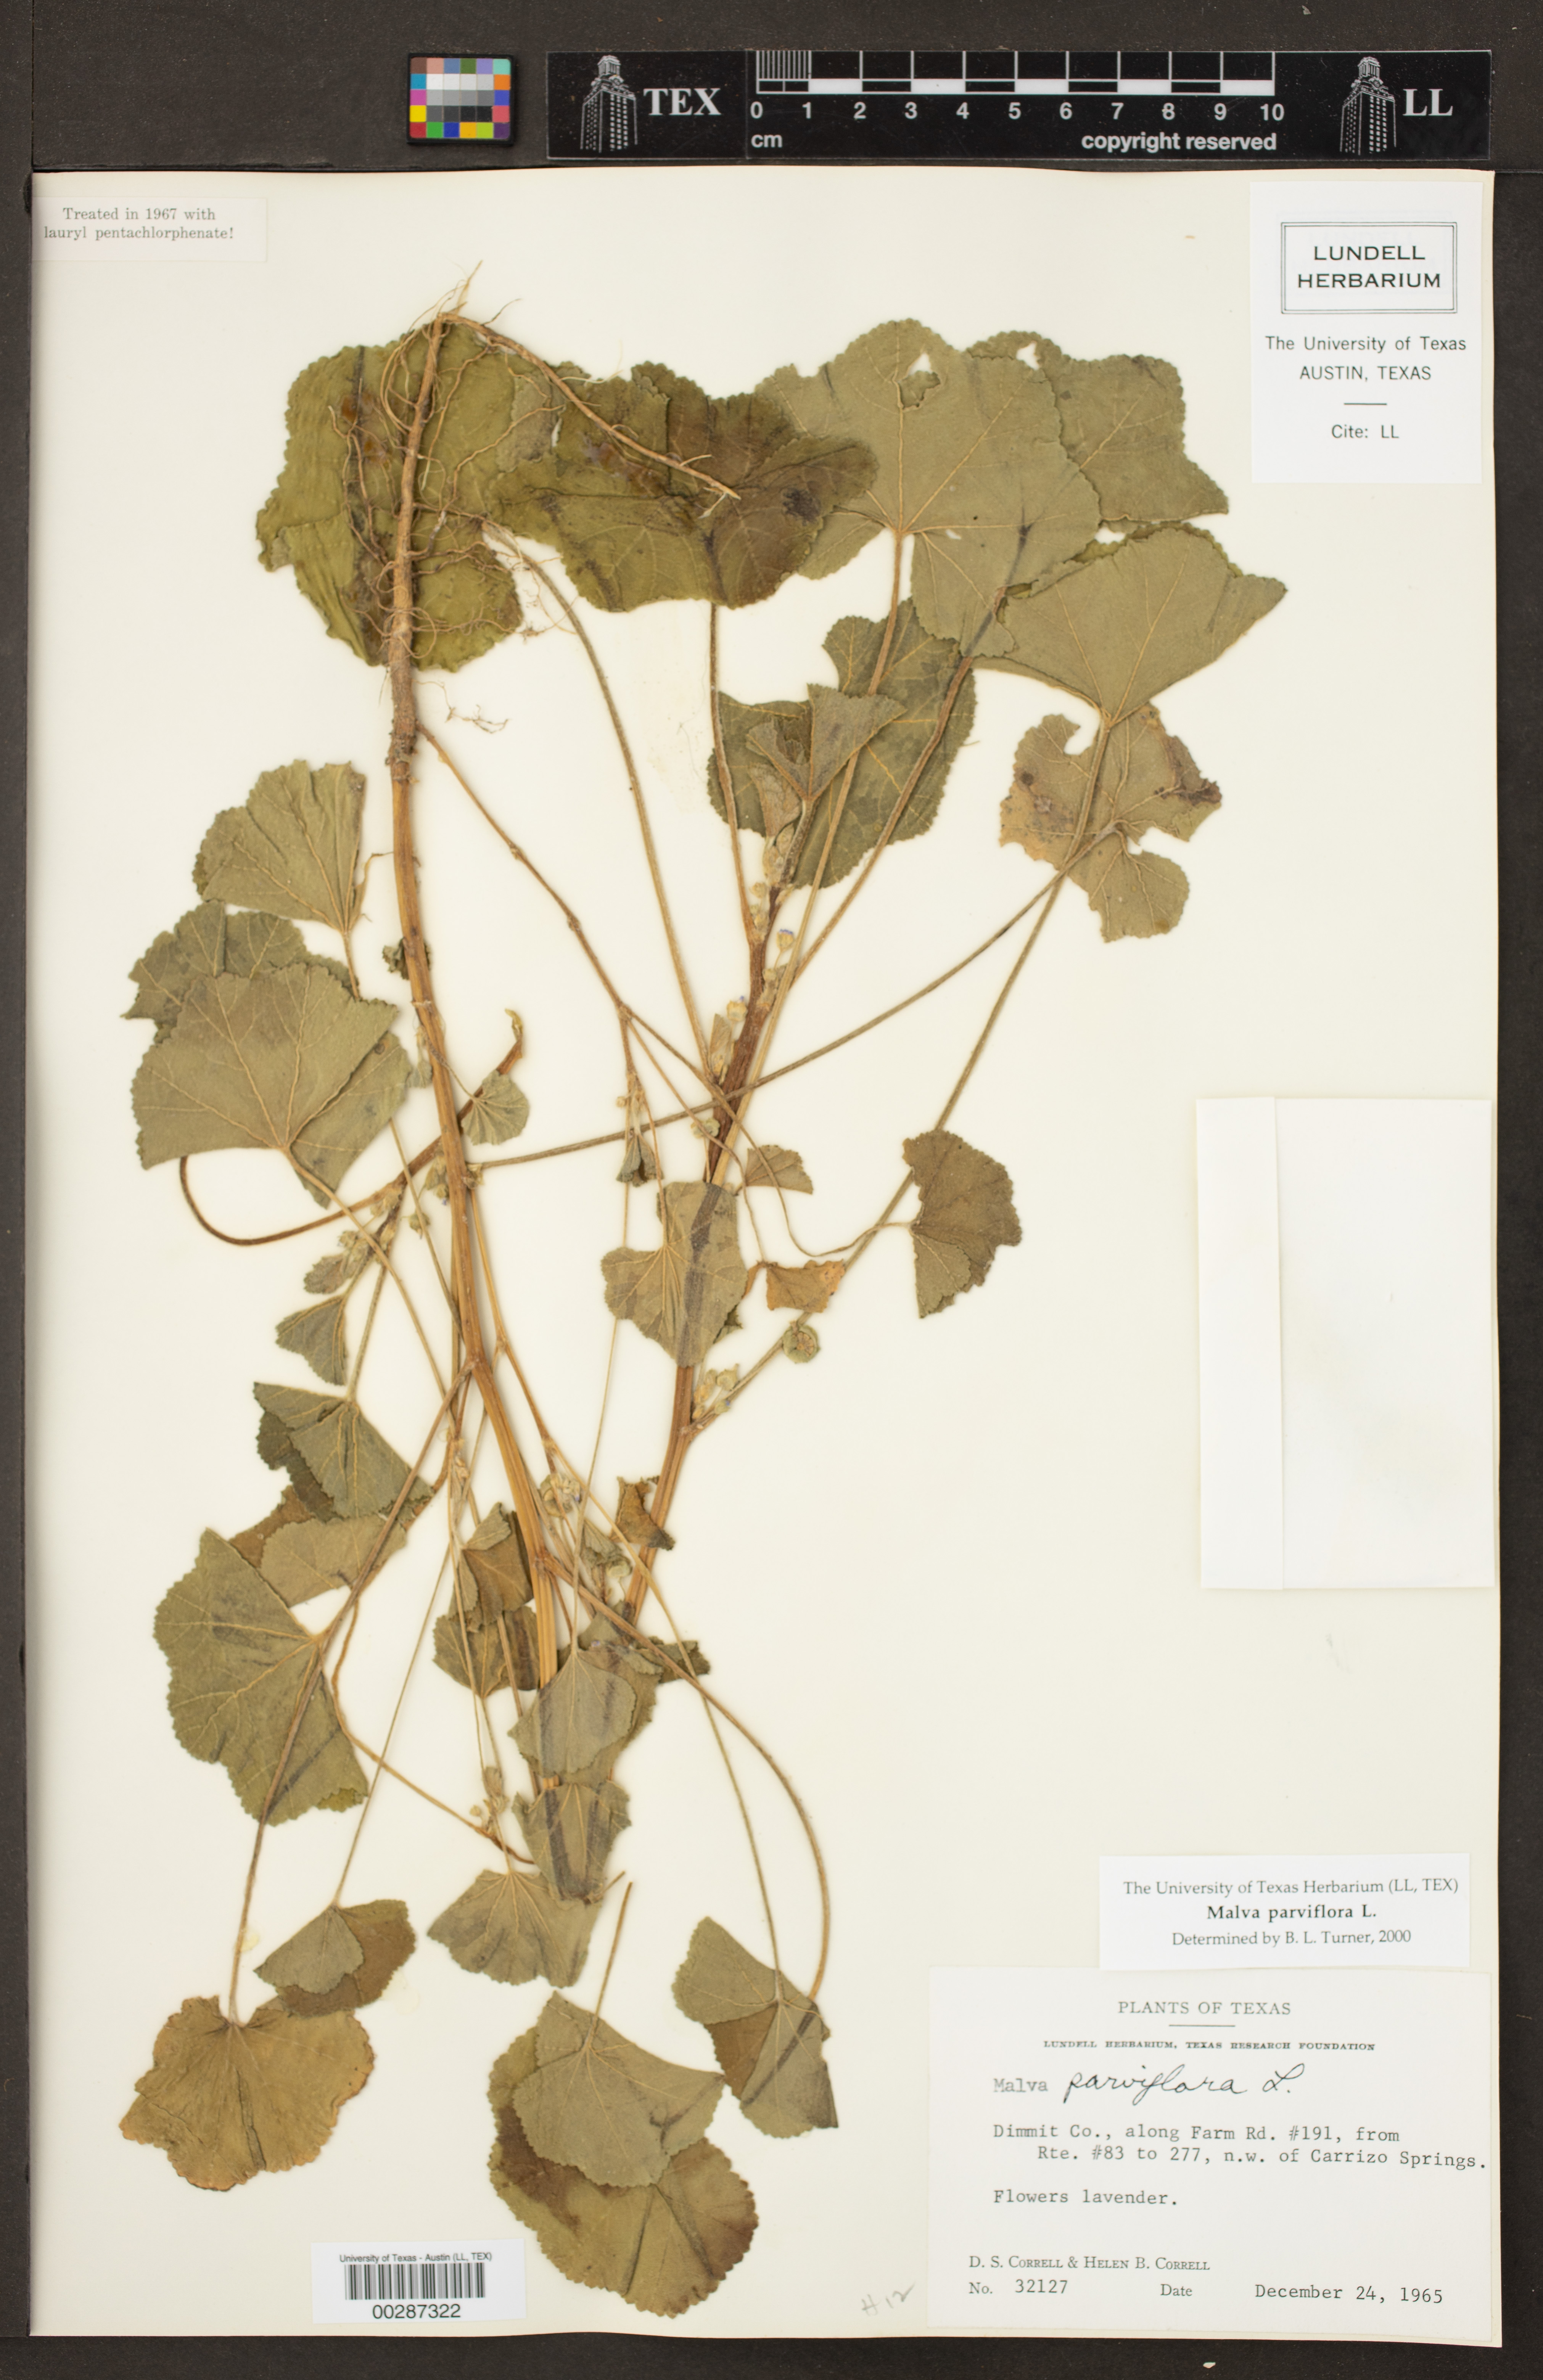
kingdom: Plantae
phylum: Tracheophyta
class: Magnoliopsida
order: Malvales
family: Malvaceae
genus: Malva
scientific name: Malva parviflora
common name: Least mallow
